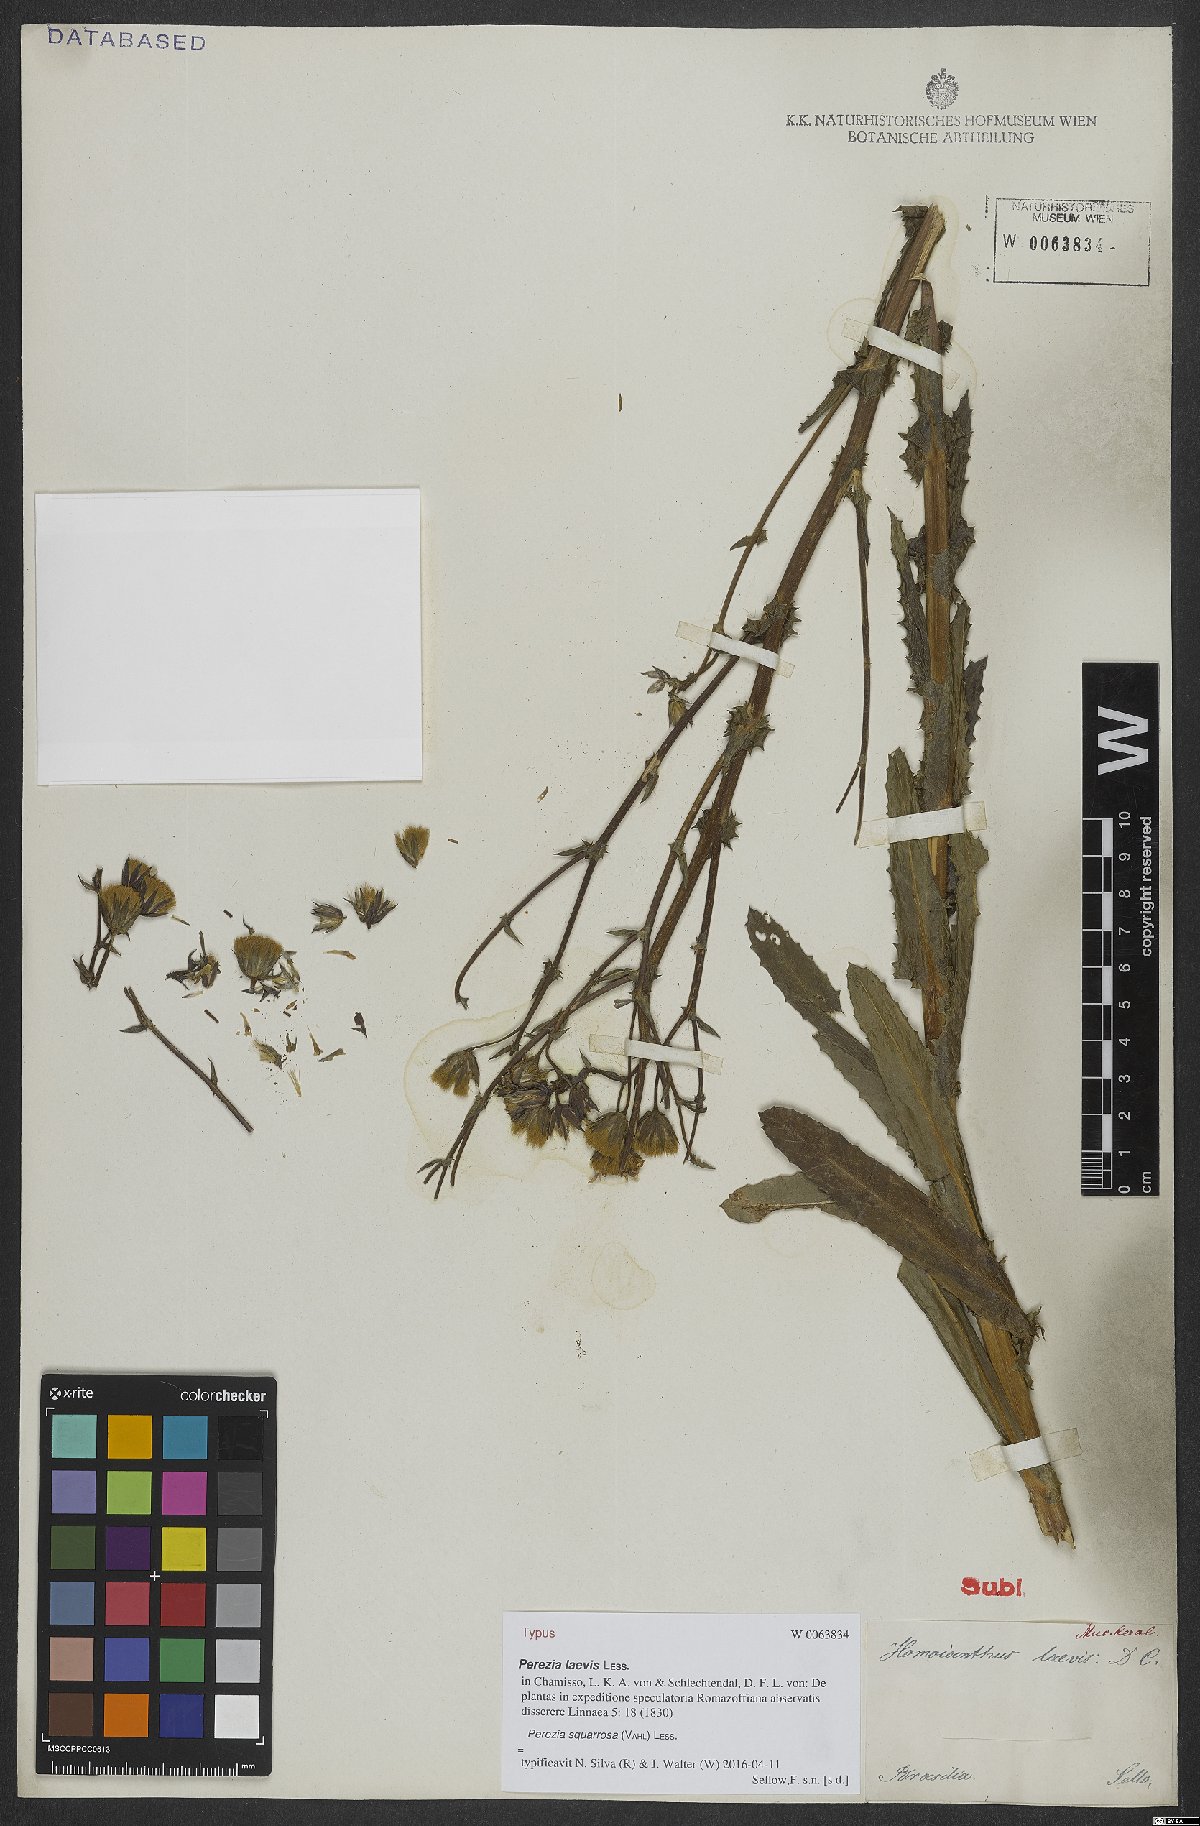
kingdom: Plantae
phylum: Tracheophyta
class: Magnoliopsida
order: Asterales
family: Asteraceae
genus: Perezia
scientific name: Perezia squarrosa
